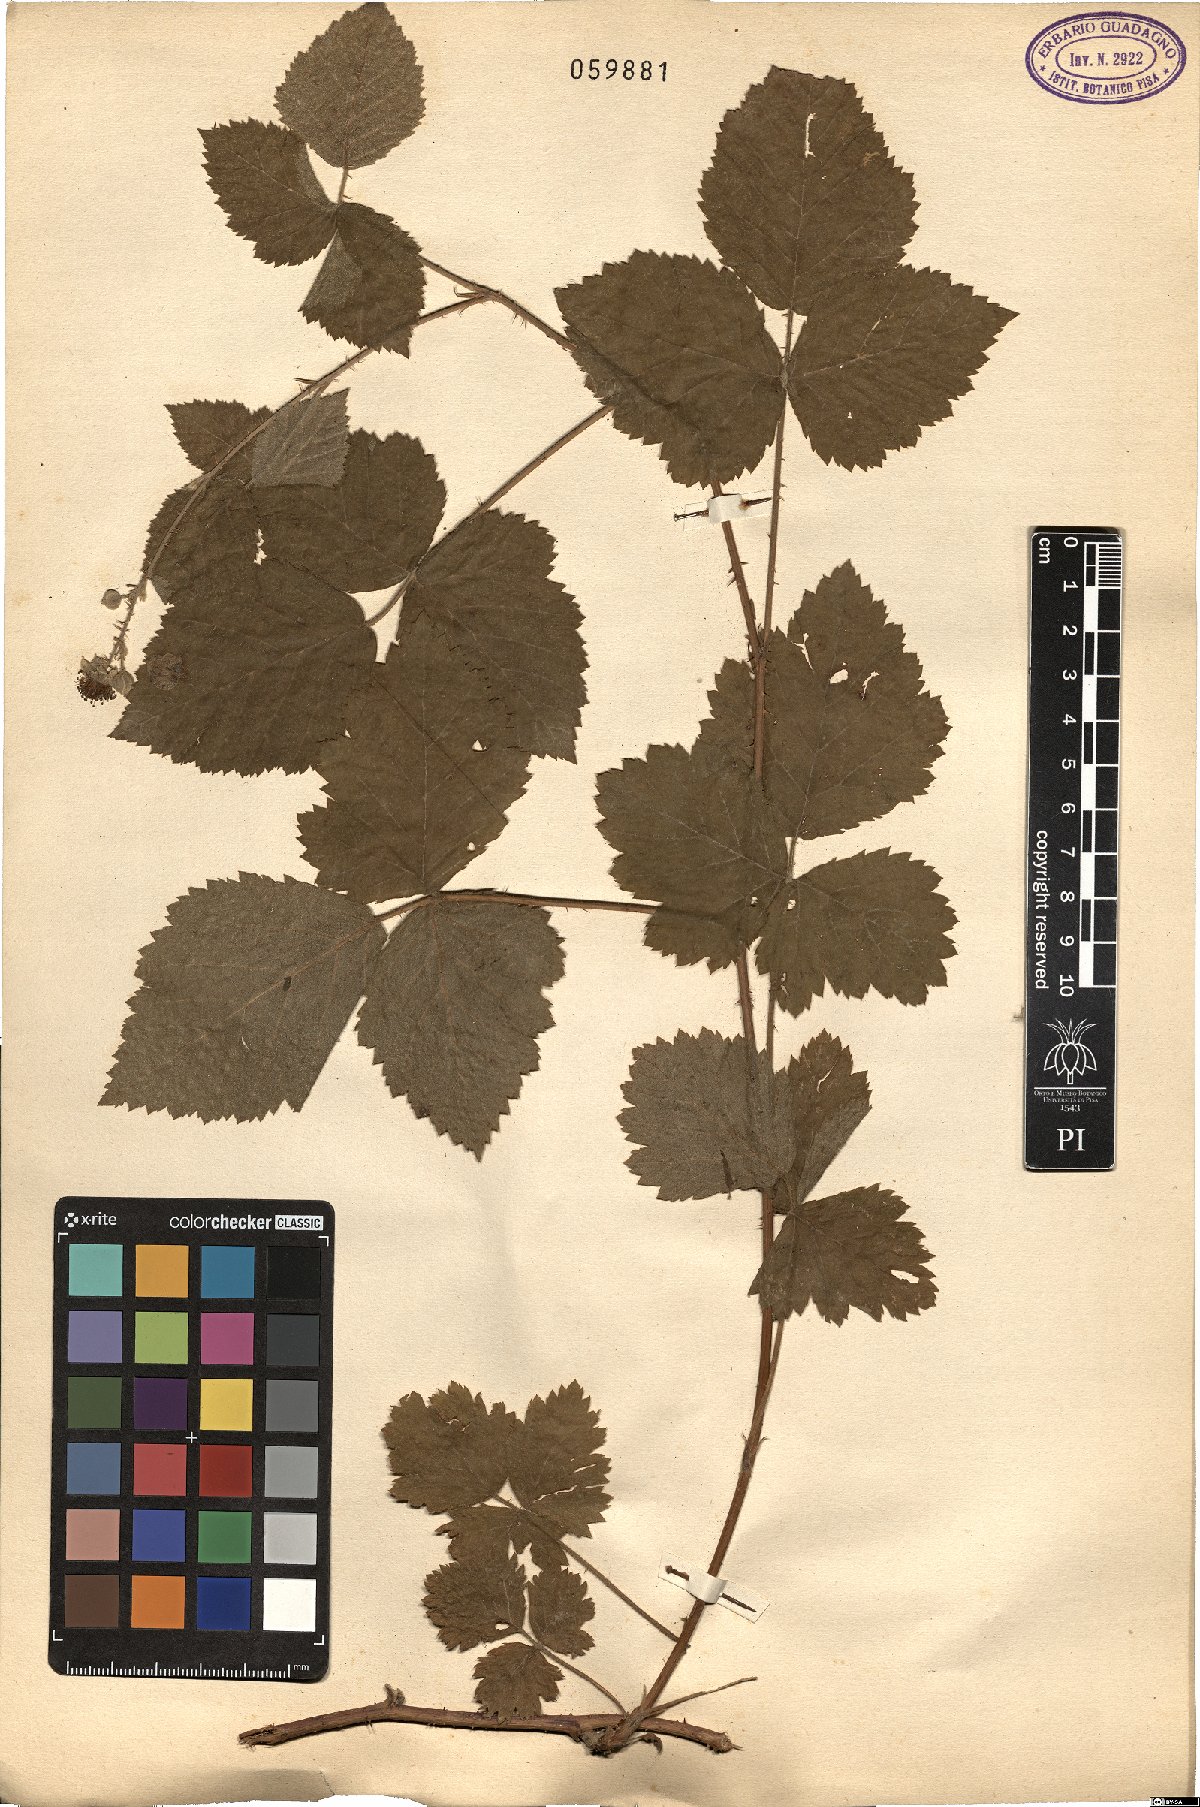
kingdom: Plantae
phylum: Tracheophyta
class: Magnoliopsida
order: Rosales
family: Rosaceae
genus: Rubus
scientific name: Rubus
